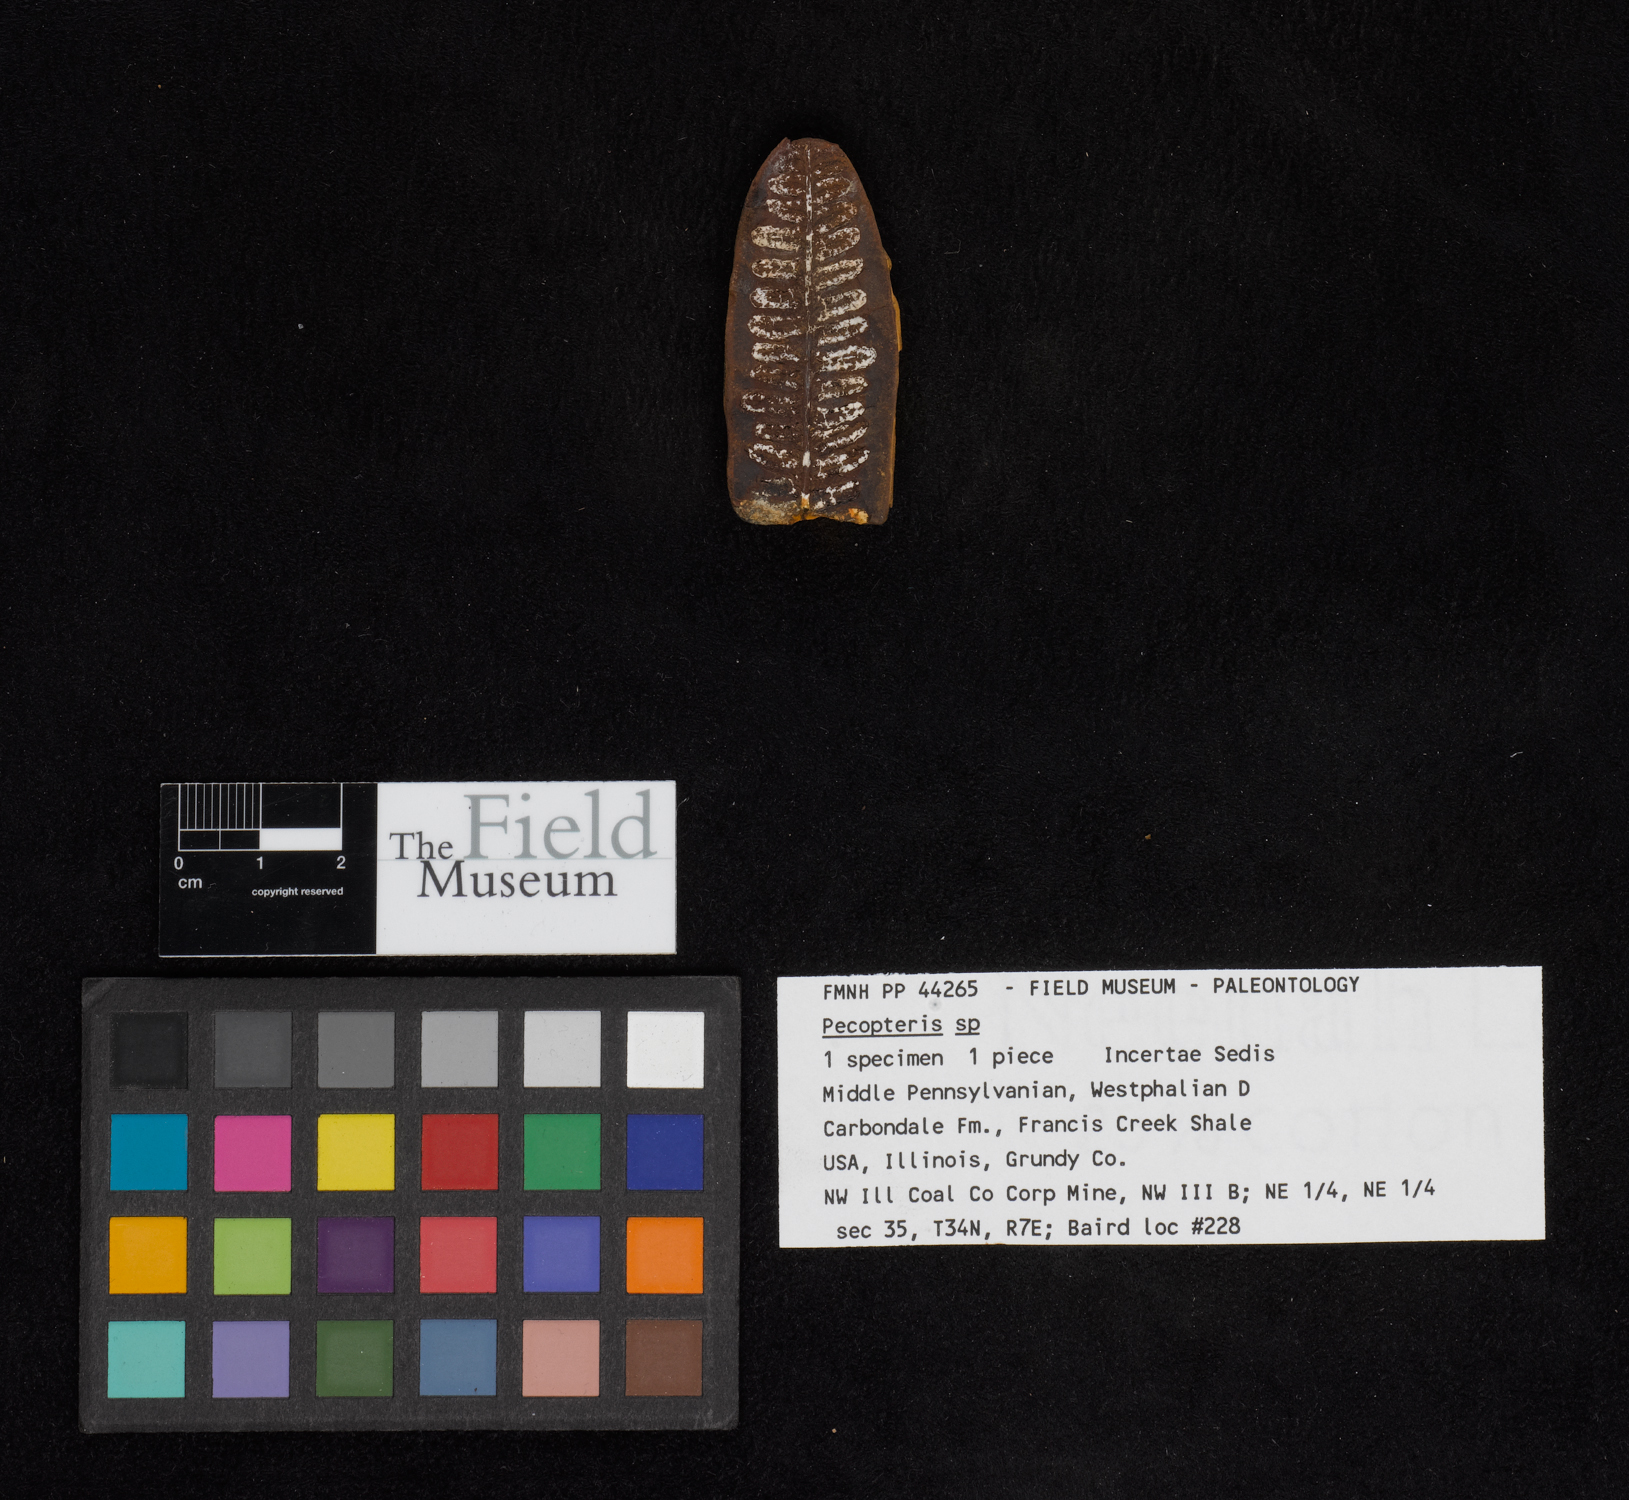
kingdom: Plantae
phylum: Tracheophyta
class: Polypodiopsida
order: Marattiales
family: Asterothecaceae
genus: Pecopteris
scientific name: Pecopteris
